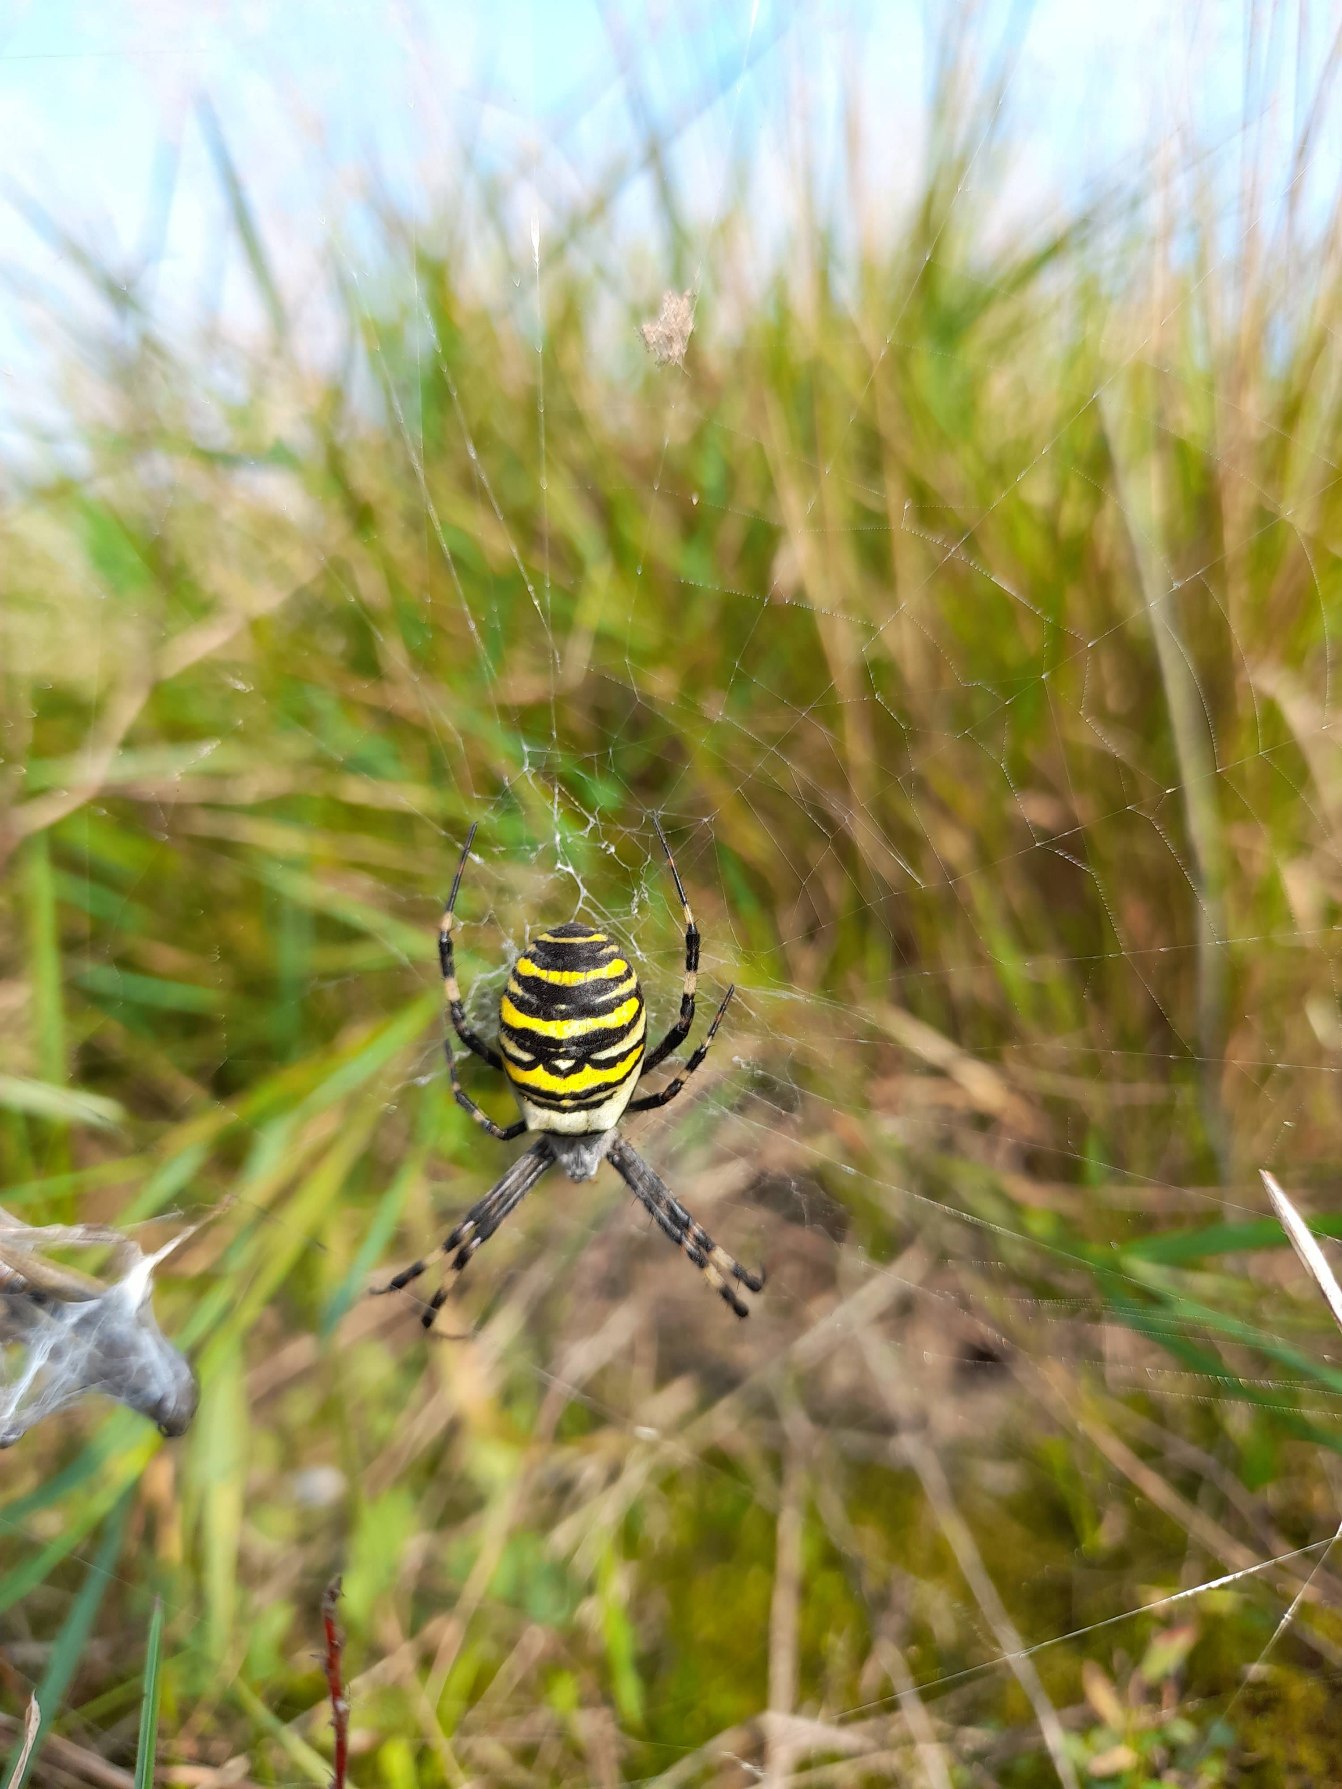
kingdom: Animalia
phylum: Arthropoda
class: Arachnida
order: Araneae
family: Araneidae
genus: Argiope
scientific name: Argiope bruennichi
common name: Hvepseedderkop
